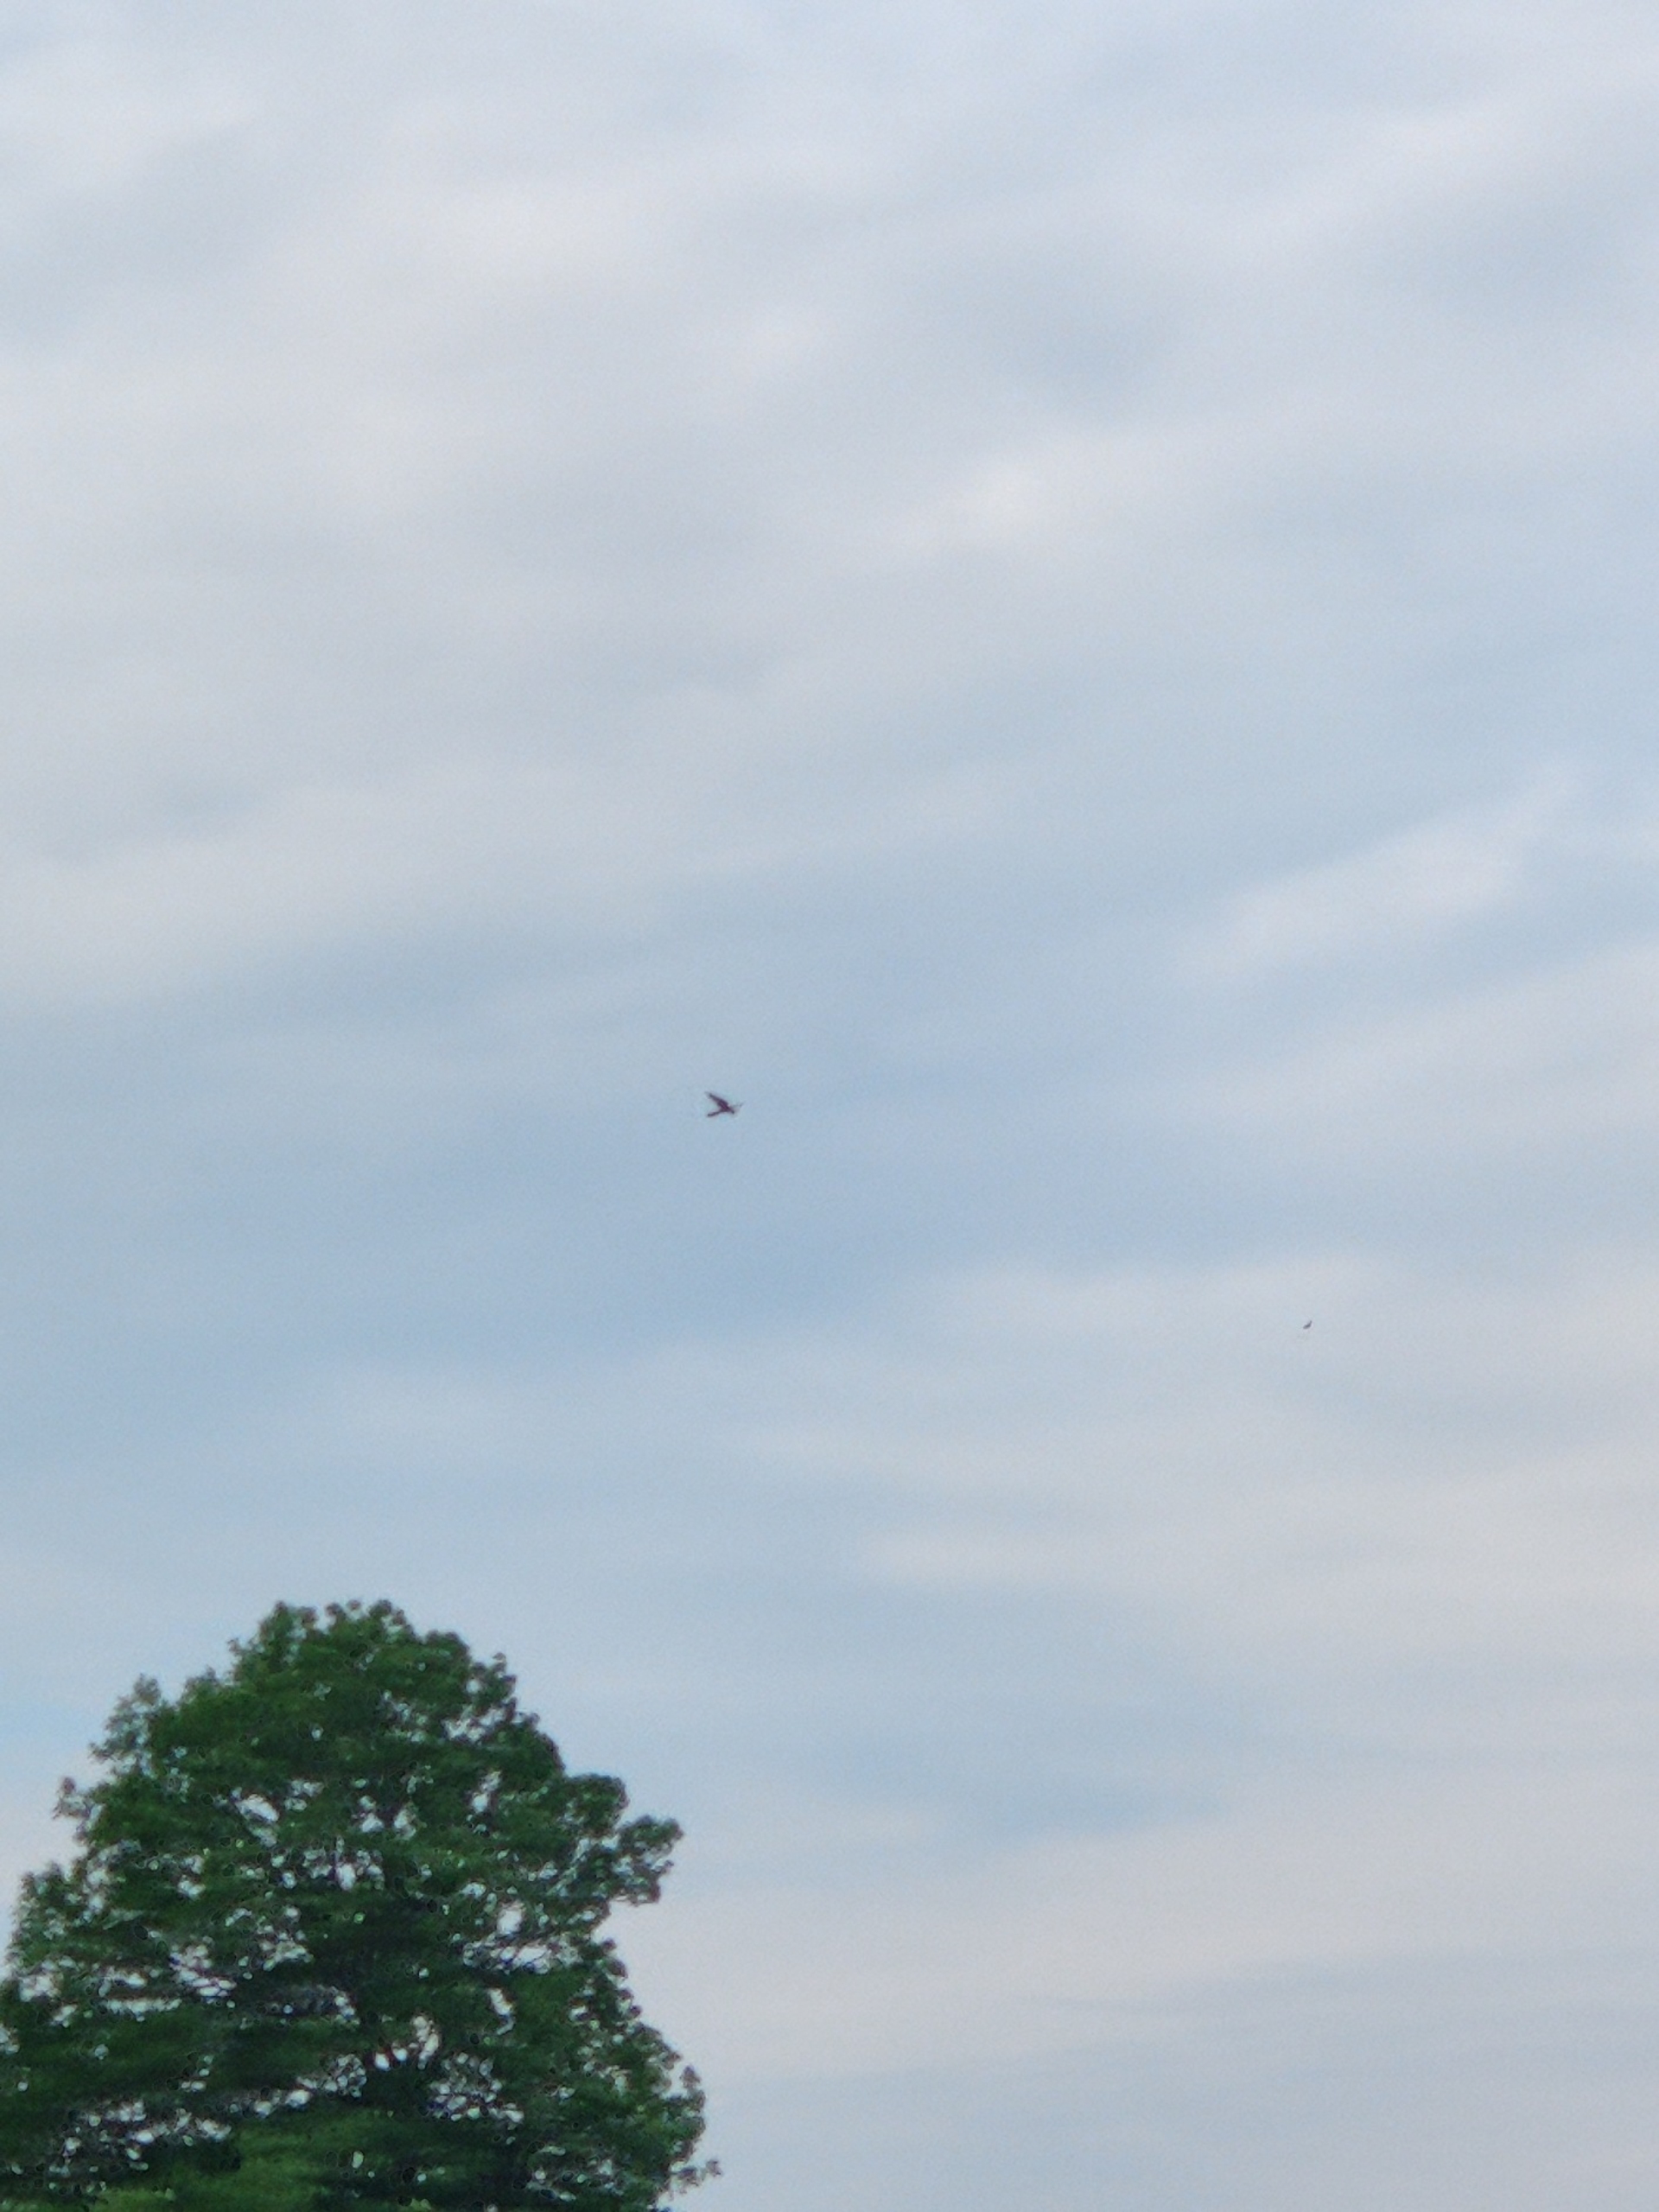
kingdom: Animalia
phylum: Chordata
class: Aves
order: Falconiformes
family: Falconidae
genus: Falco
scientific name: Falco tinnunculus
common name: Tårnfalk
